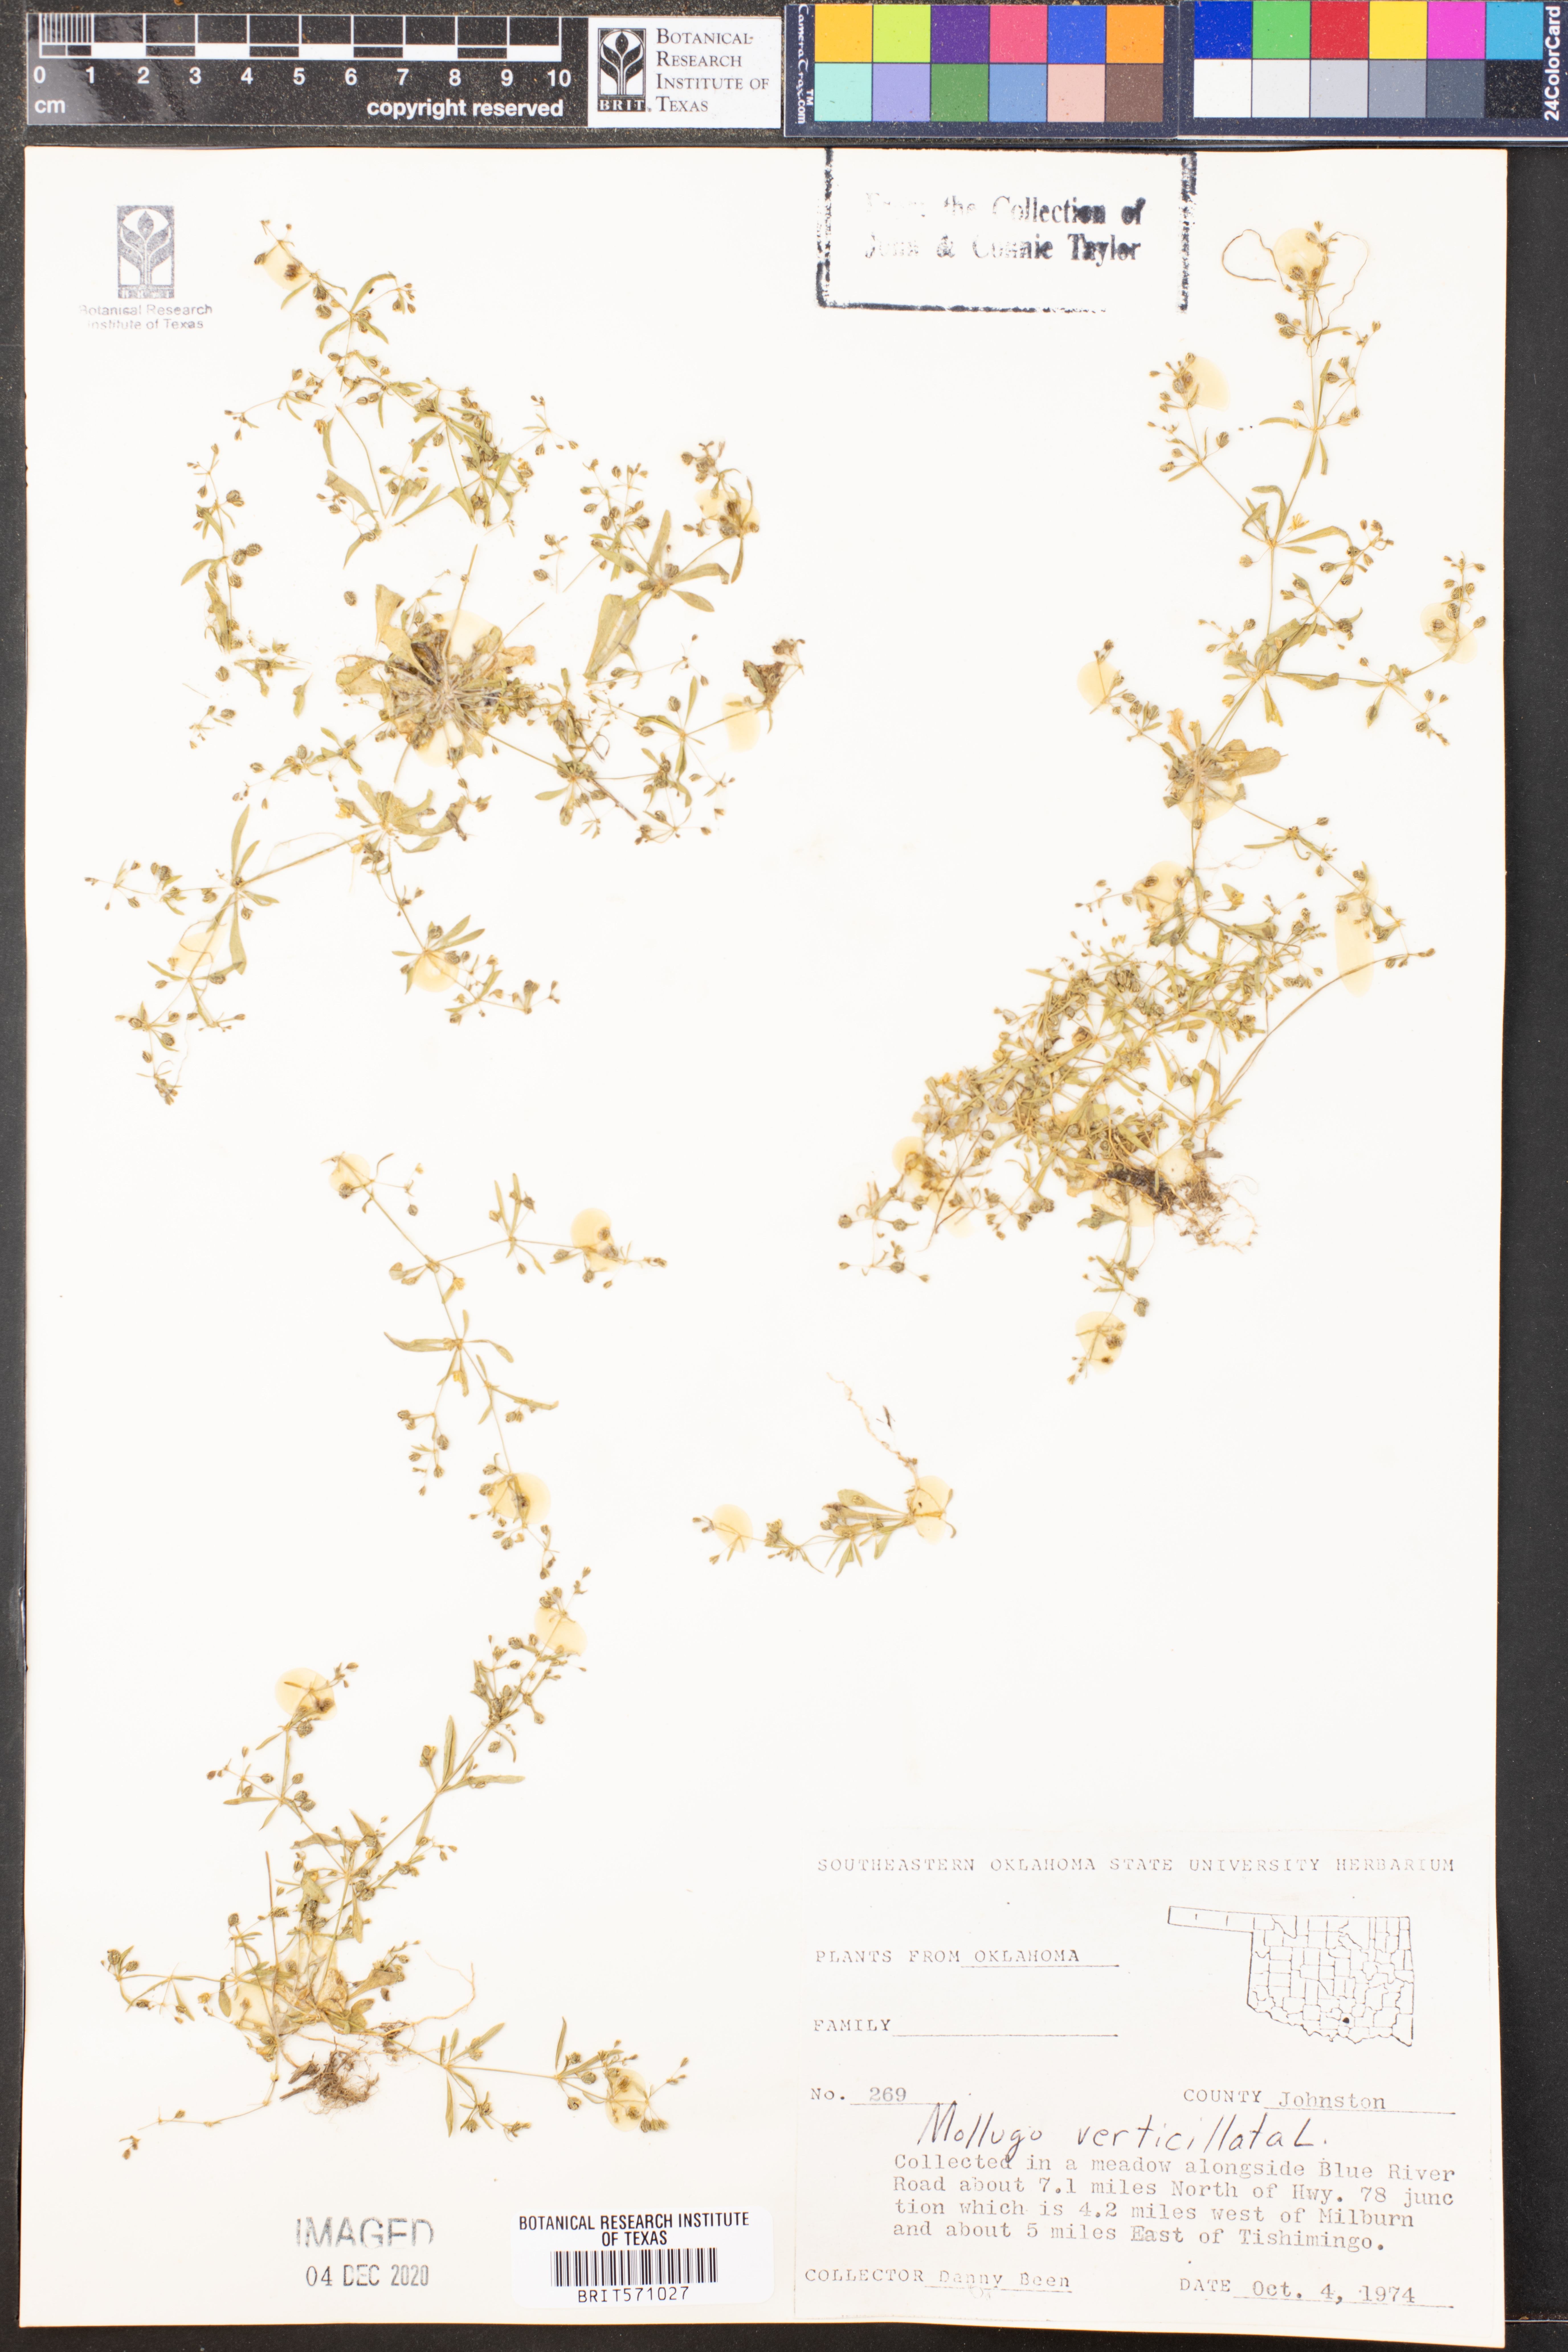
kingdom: Plantae
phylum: Tracheophyta
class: Magnoliopsida
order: Caryophyllales
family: Molluginaceae
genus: Mollugo
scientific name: Mollugo verticillata
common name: Green carpetweed
